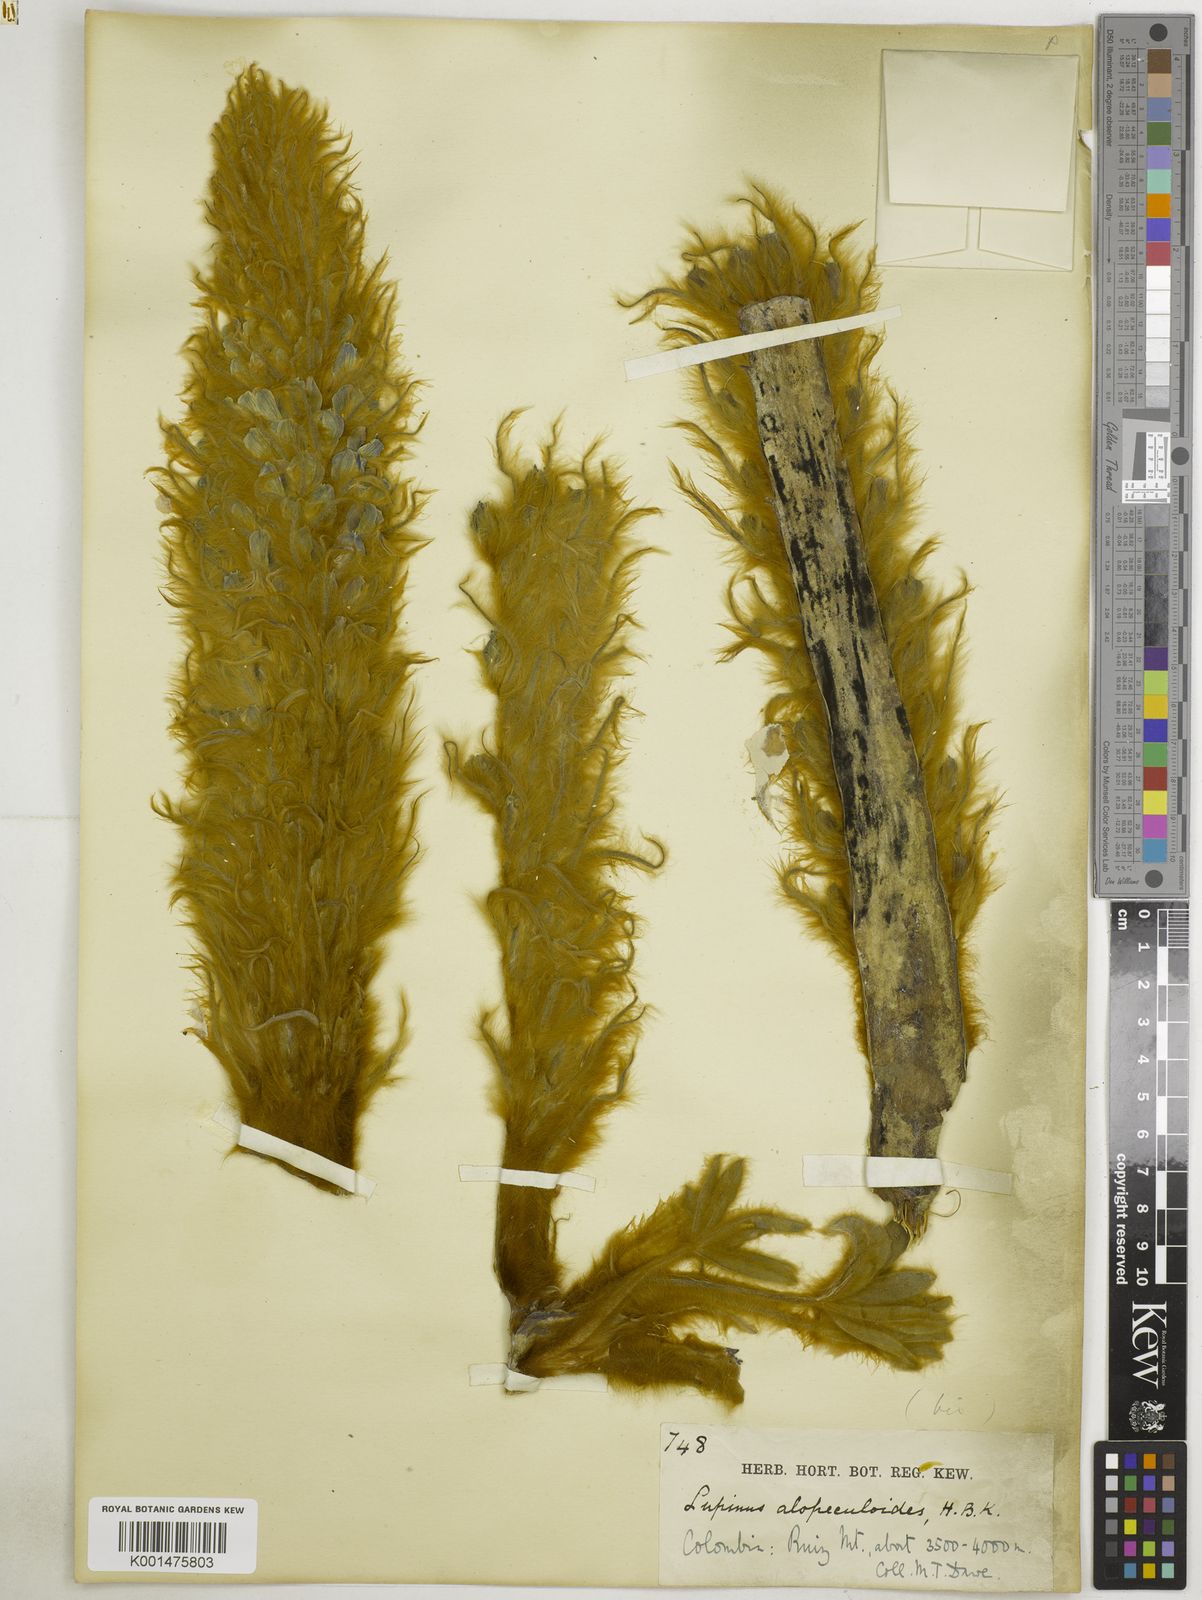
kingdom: Plantae
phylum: Tracheophyta
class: Magnoliopsida
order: Fabales
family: Fabaceae
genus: Lupinus
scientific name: Lupinus alopecuroides
